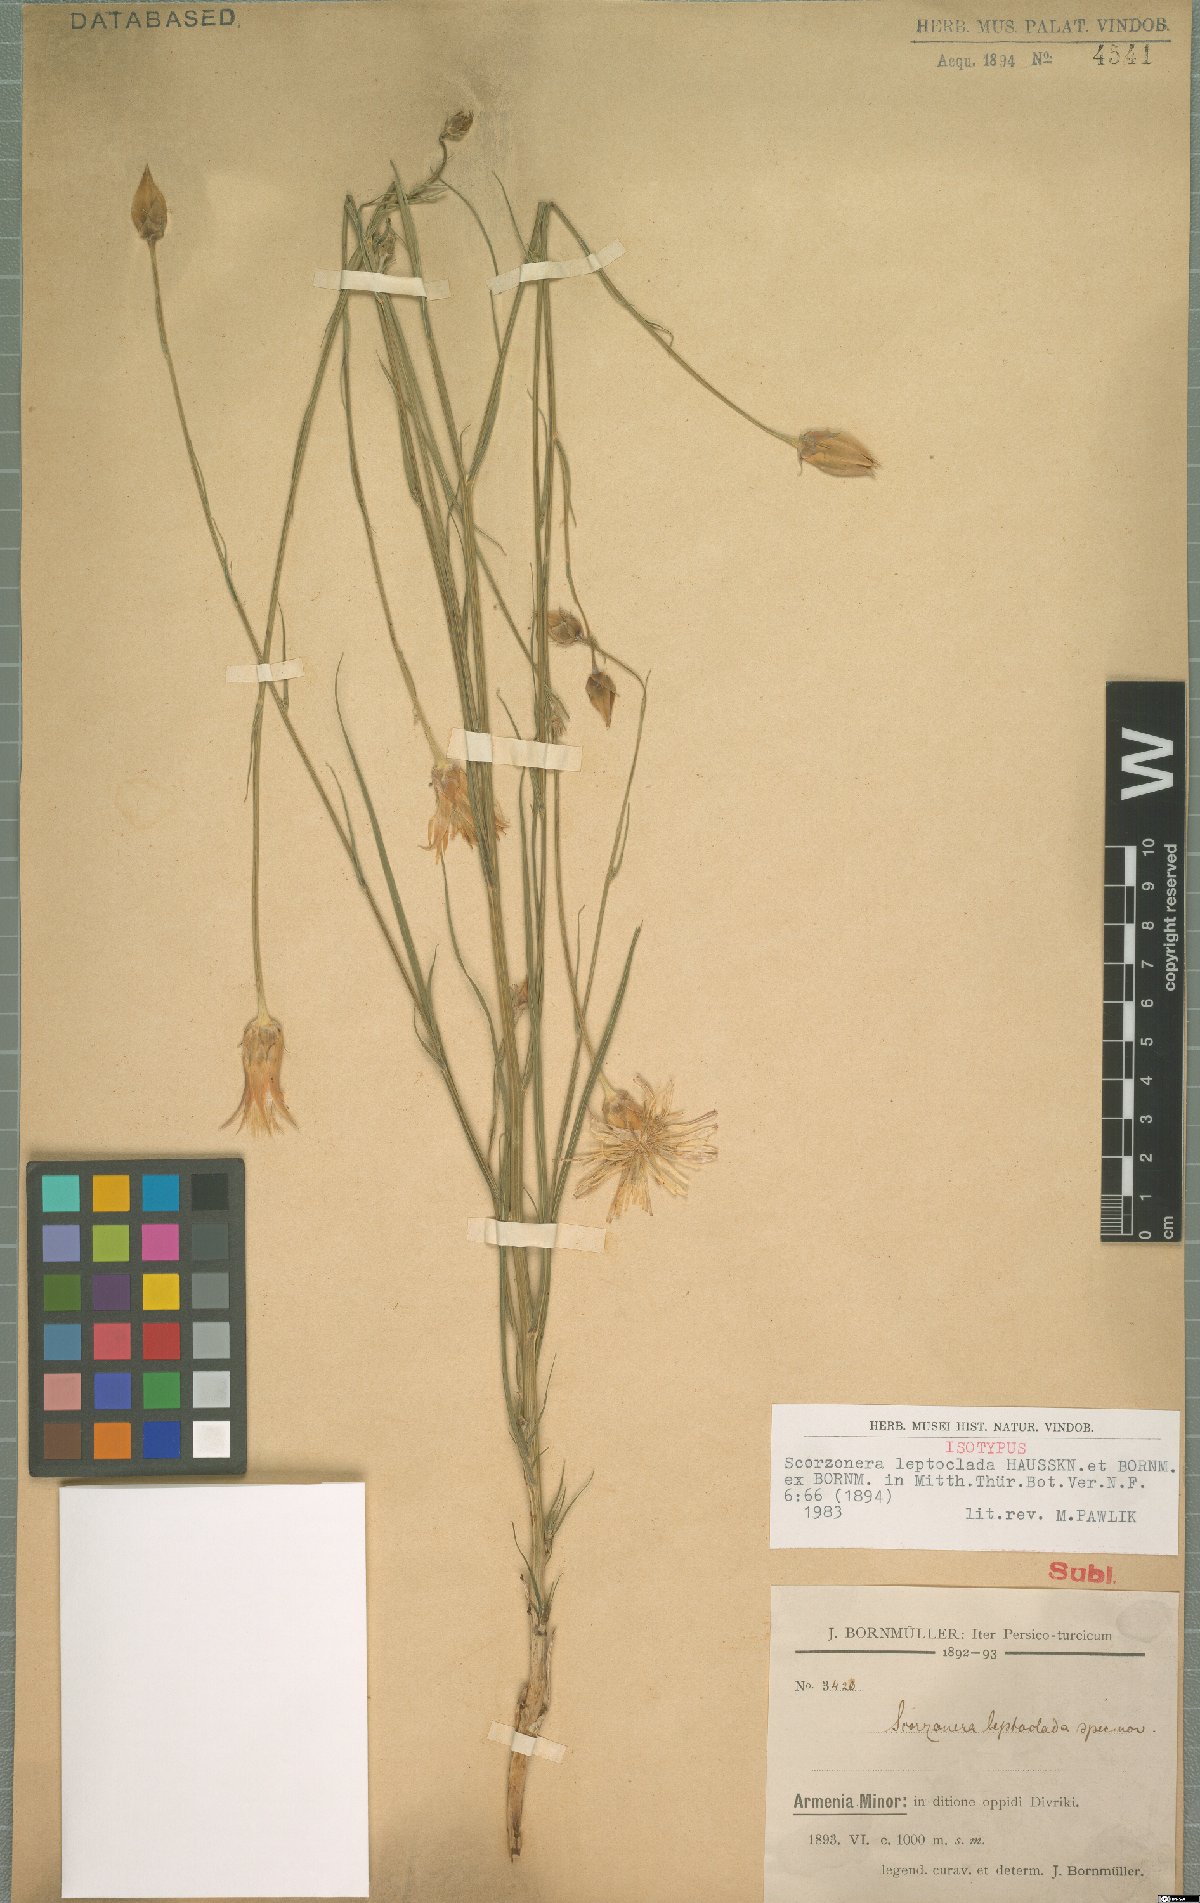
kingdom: Plantae
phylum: Tracheophyta
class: Magnoliopsida
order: Asterales
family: Asteraceae
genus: Candollea
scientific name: Candollea elata
